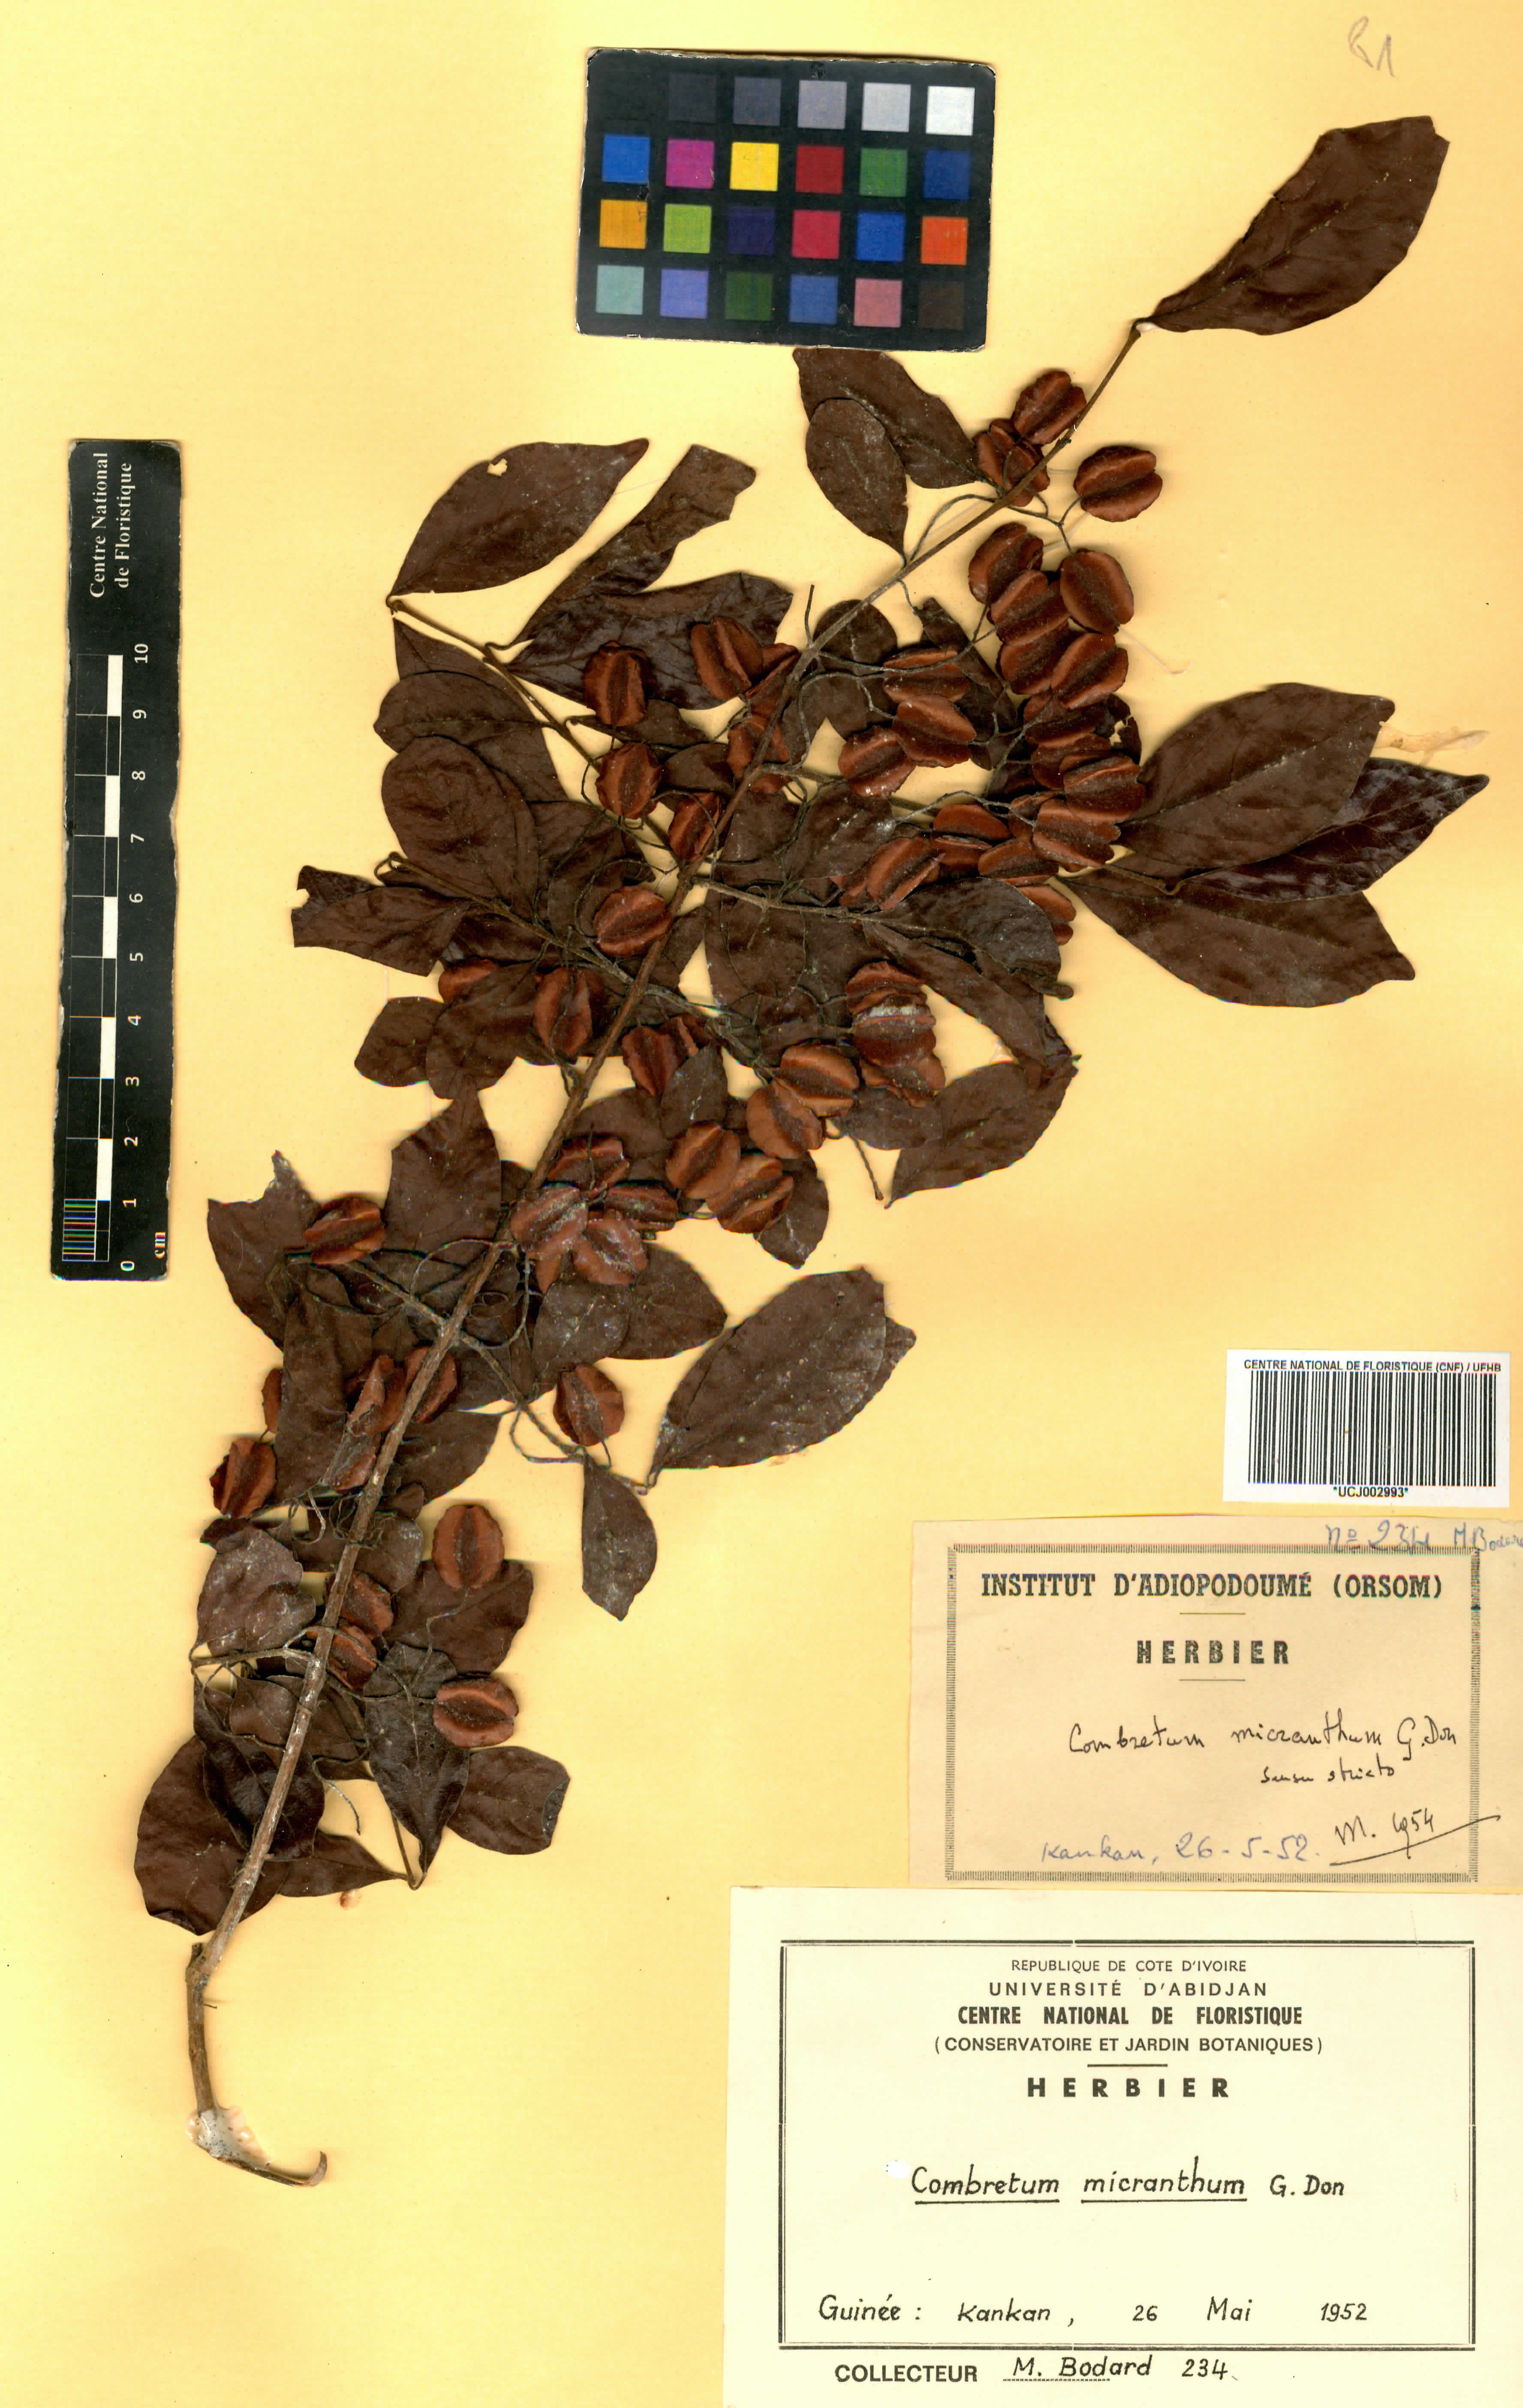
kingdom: Plantae
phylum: Tracheophyta
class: Magnoliopsida
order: Myrtales
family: Combretaceae
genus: Combretum
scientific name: Combretum micranthum
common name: Opium-antidote
